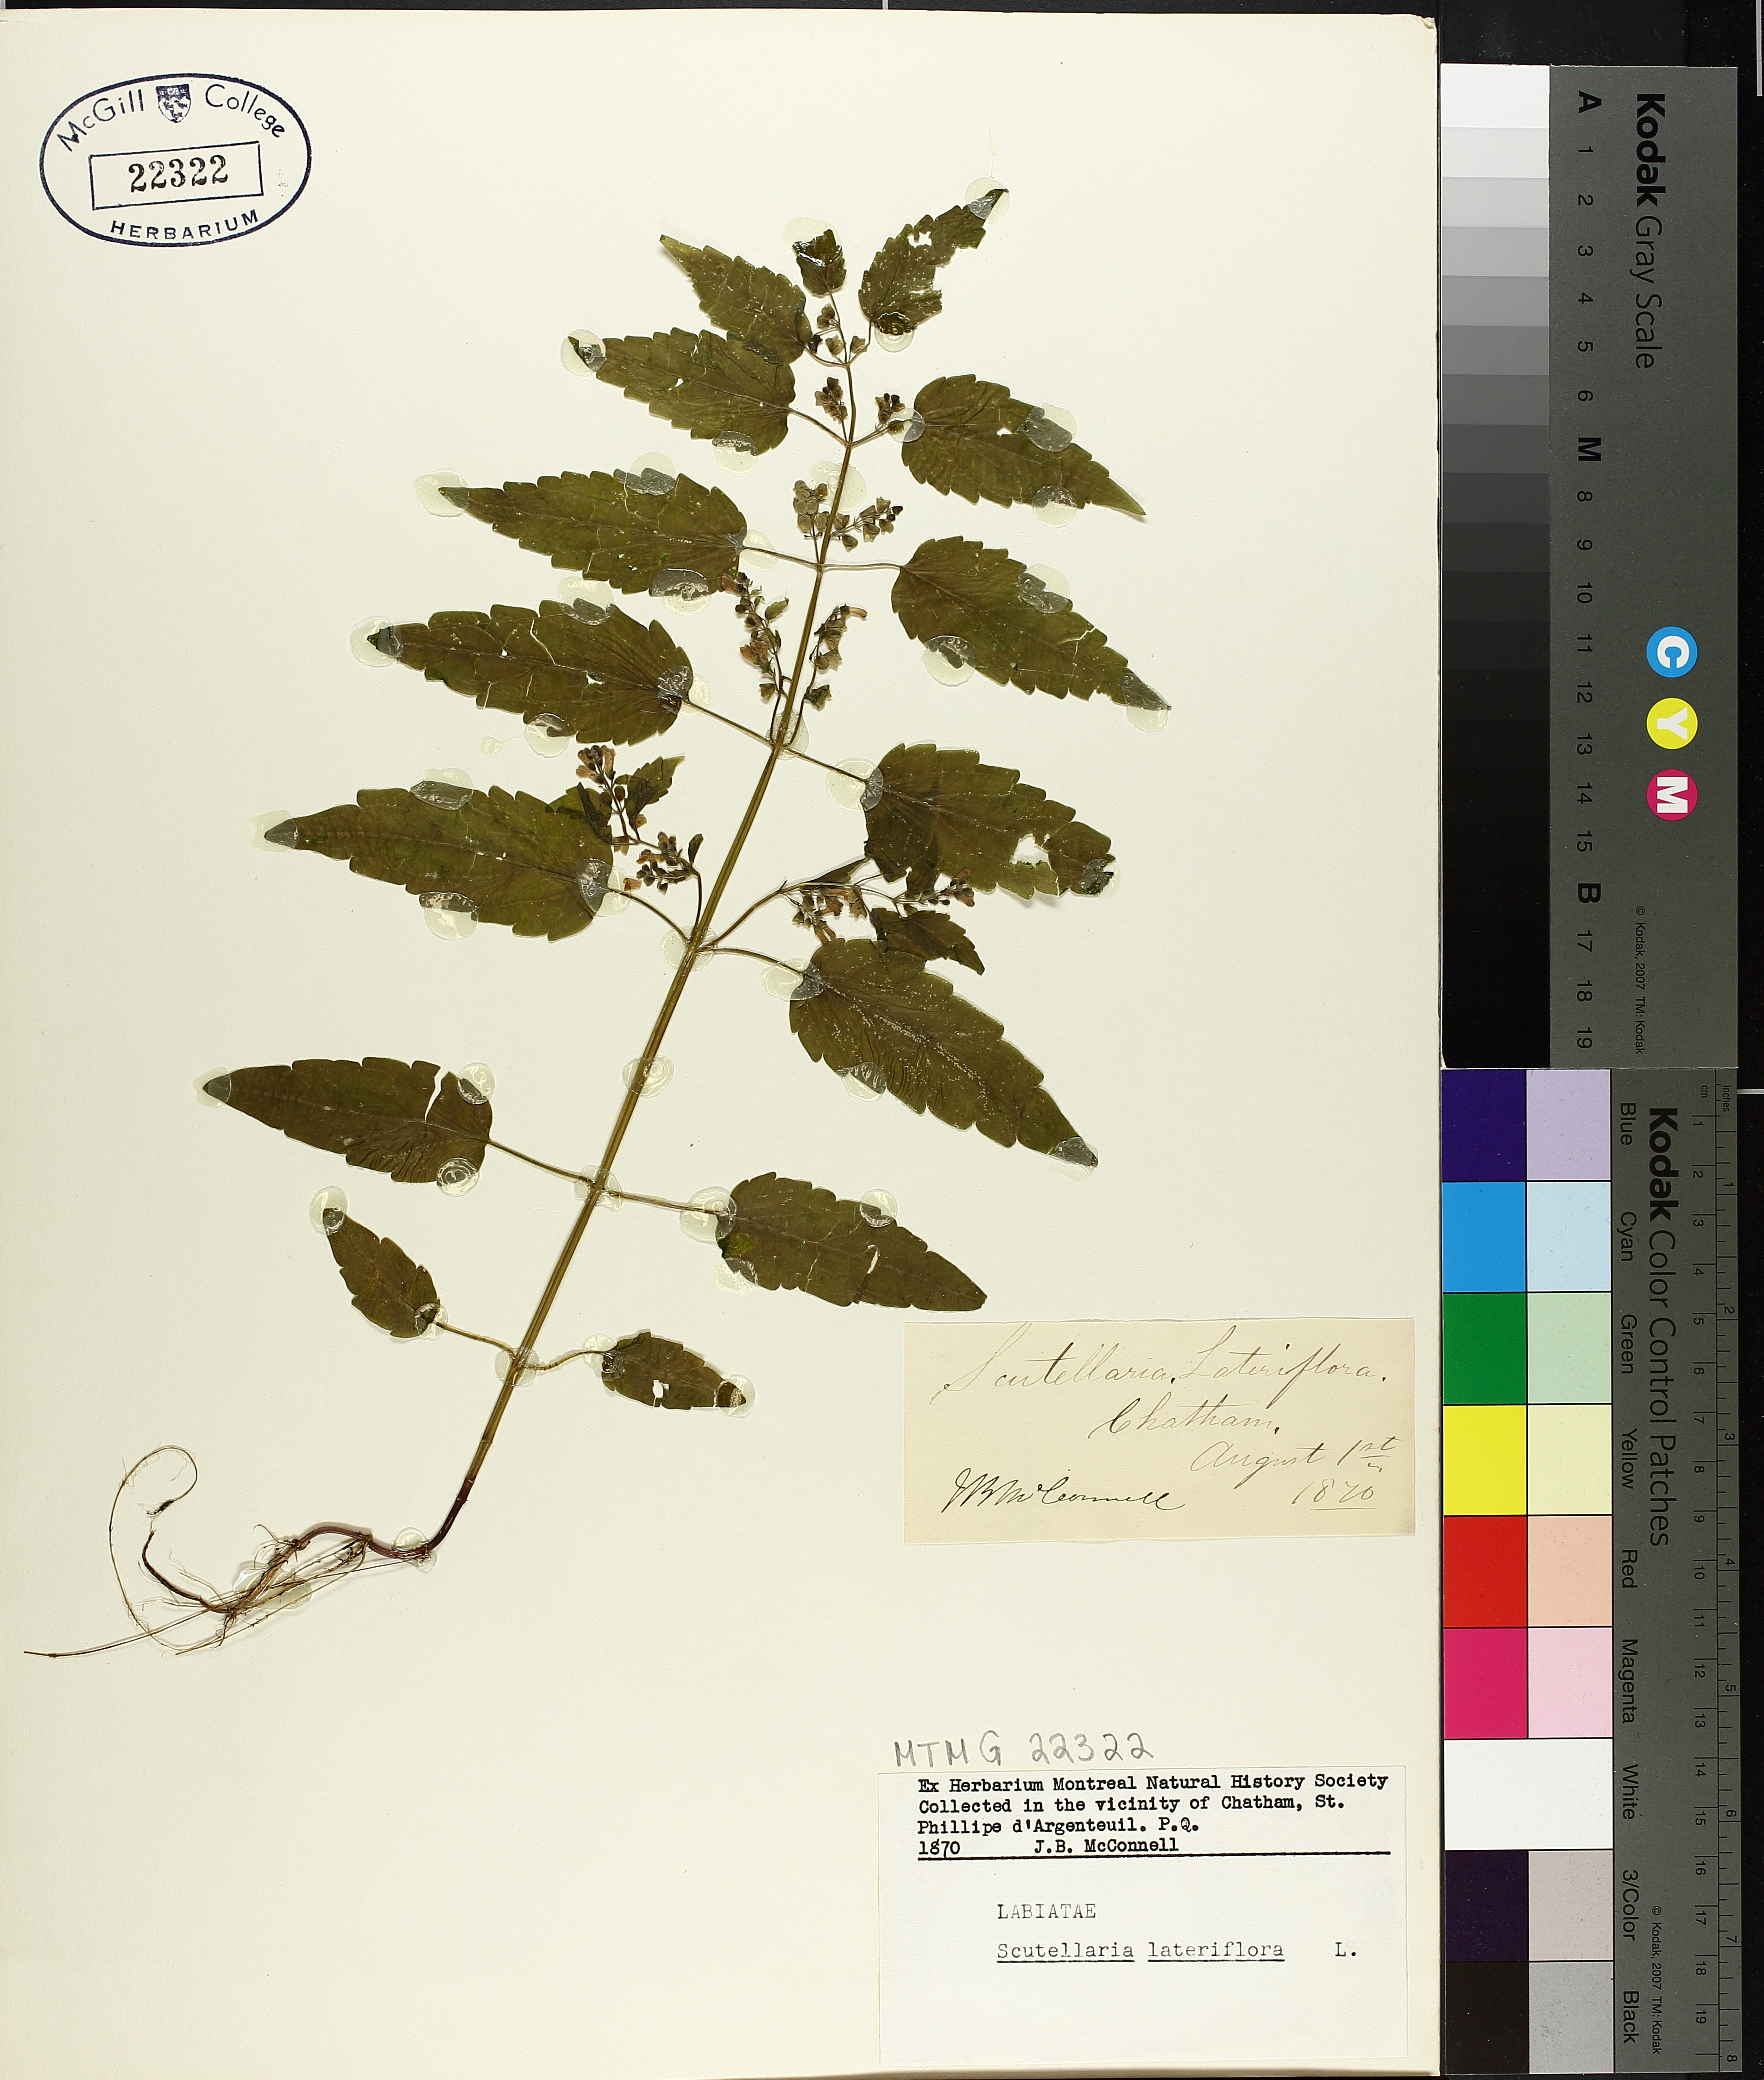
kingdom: Plantae
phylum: Tracheophyta
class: Magnoliopsida
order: Lamiales
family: Lamiaceae
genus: Scutellaria
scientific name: Scutellaria lateriflora
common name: Blue skullcap
